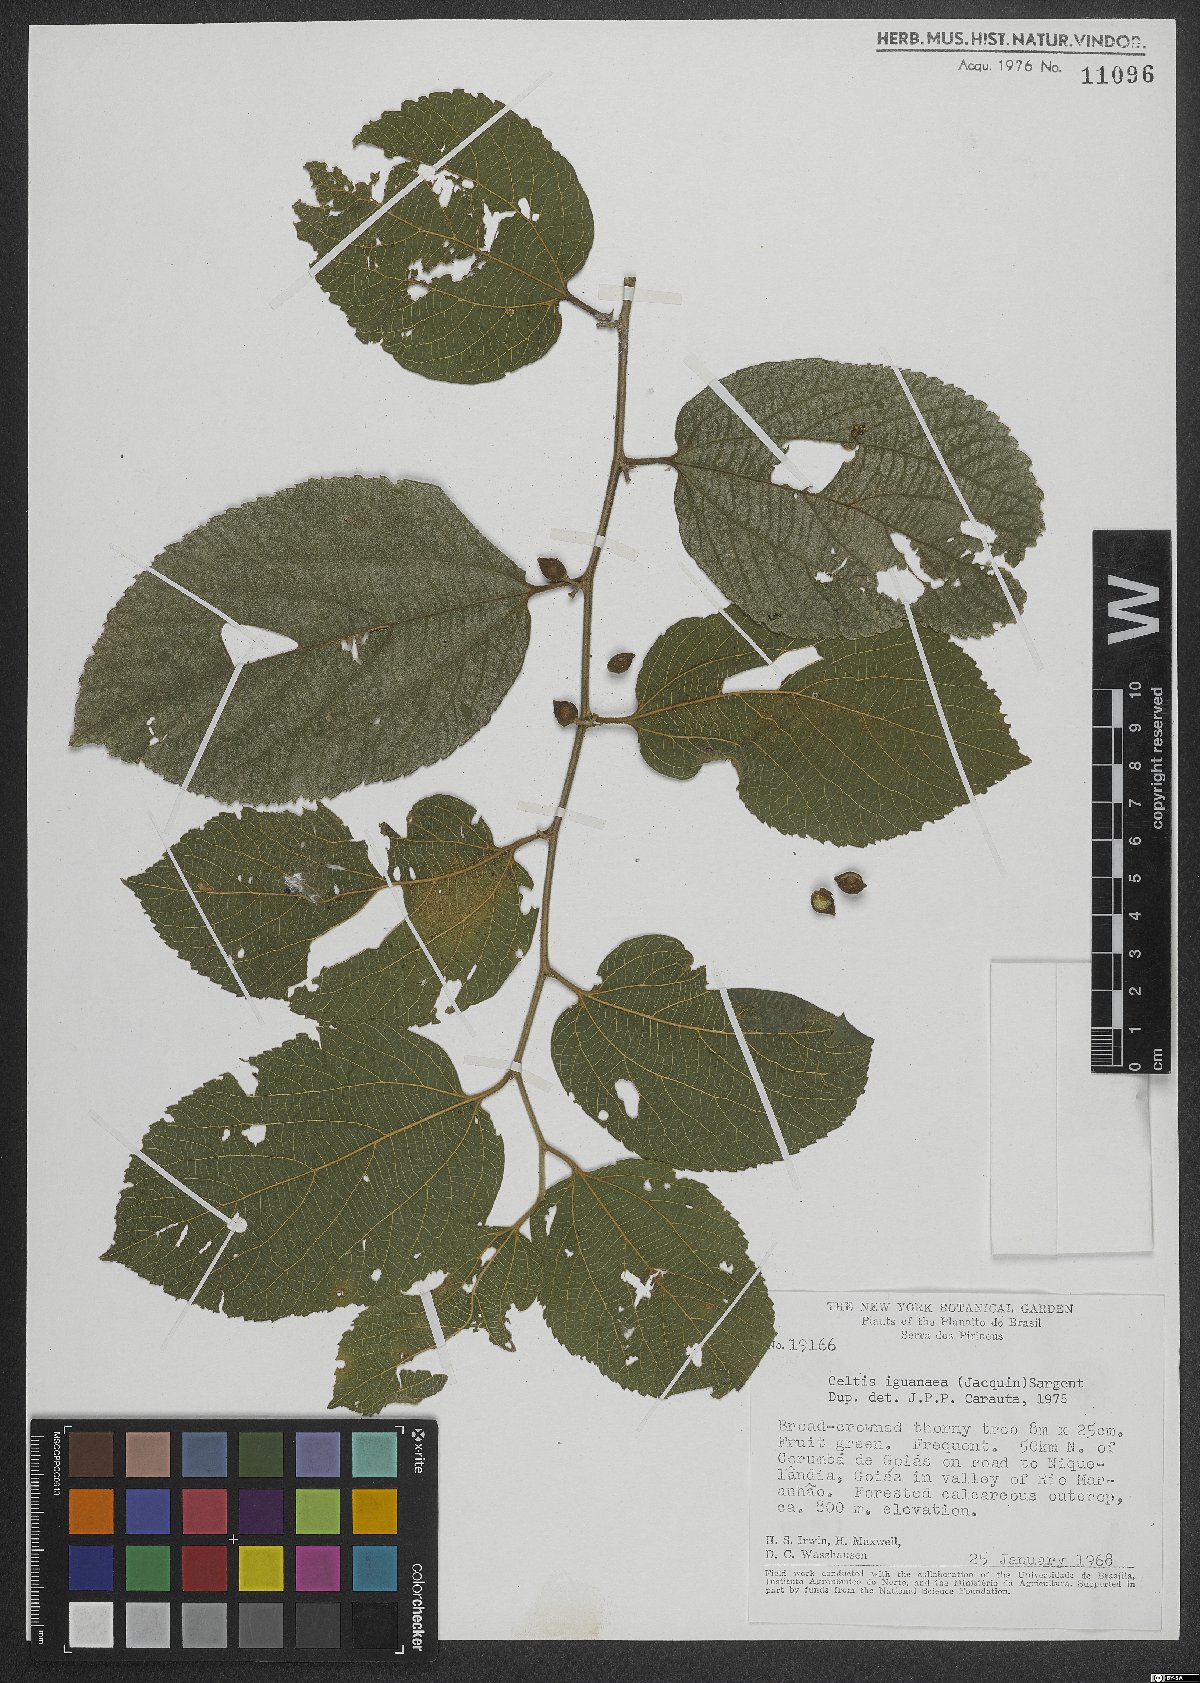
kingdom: Plantae
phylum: Tracheophyta
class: Magnoliopsida
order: Rosales
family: Cannabaceae
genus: Celtis
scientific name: Celtis iguanaea
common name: Iguana hackberry
